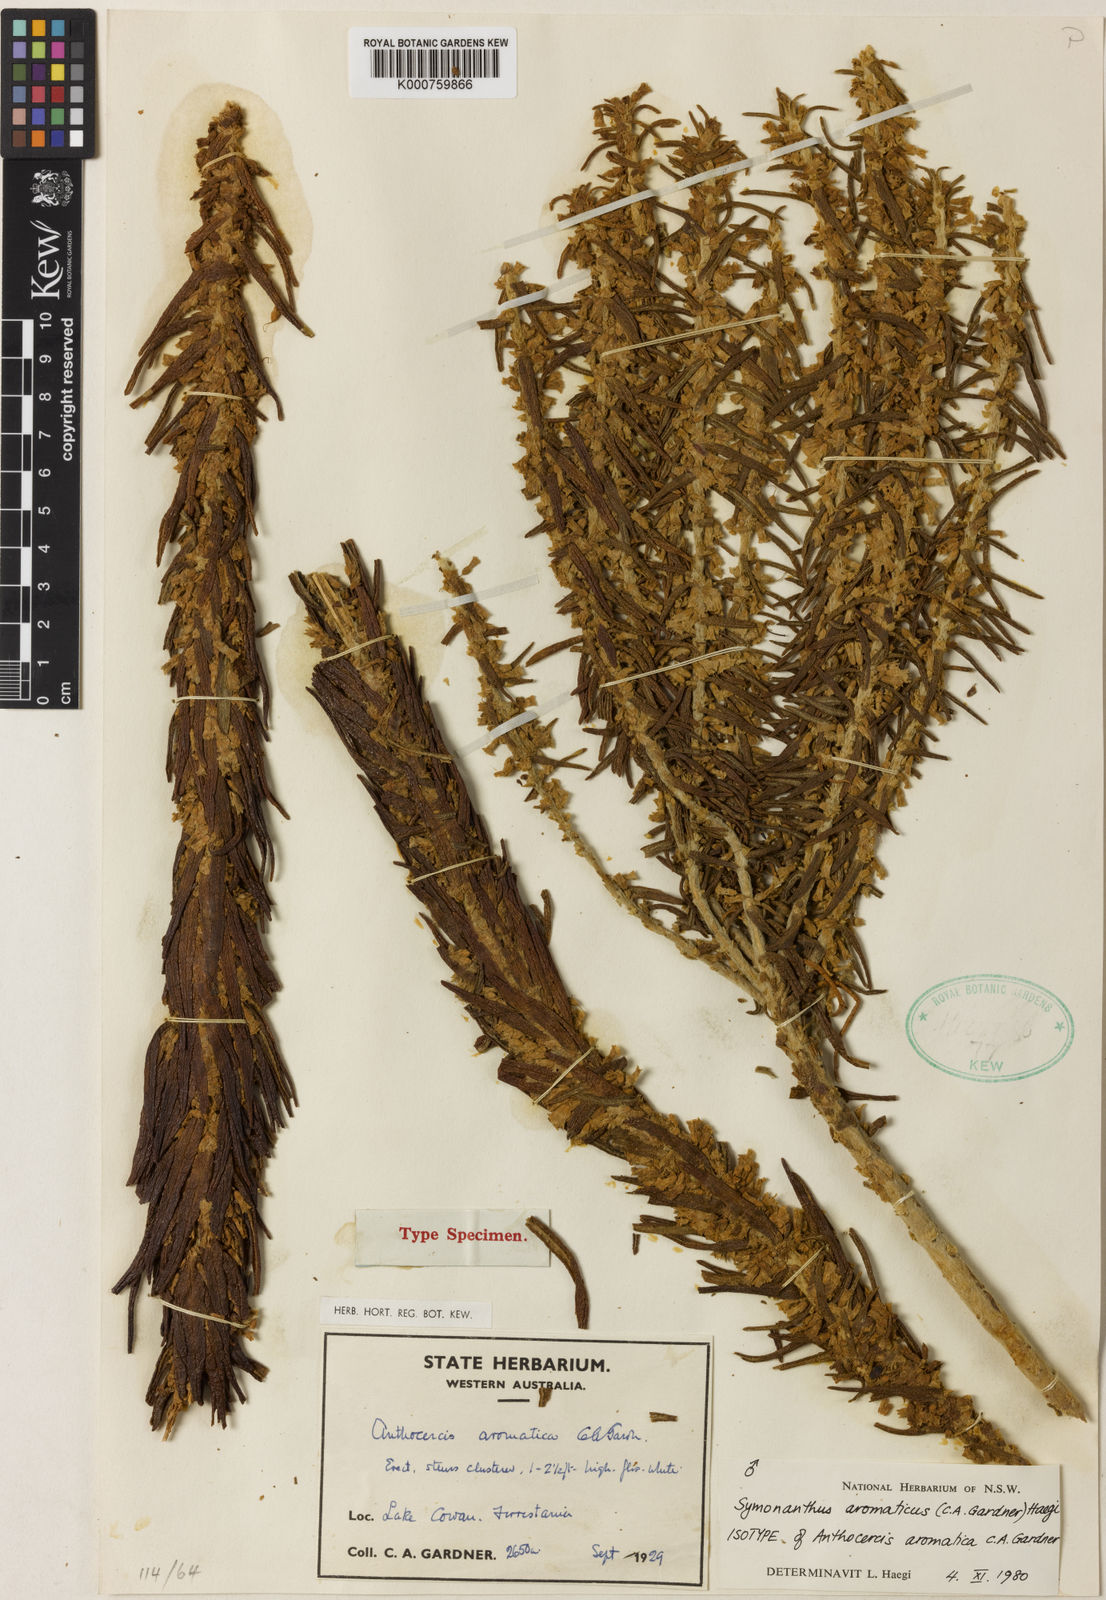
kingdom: Plantae
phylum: Tracheophyta
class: Magnoliopsida
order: Solanales
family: Solanaceae
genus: Symonanthus
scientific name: Symonanthus aromaticus
